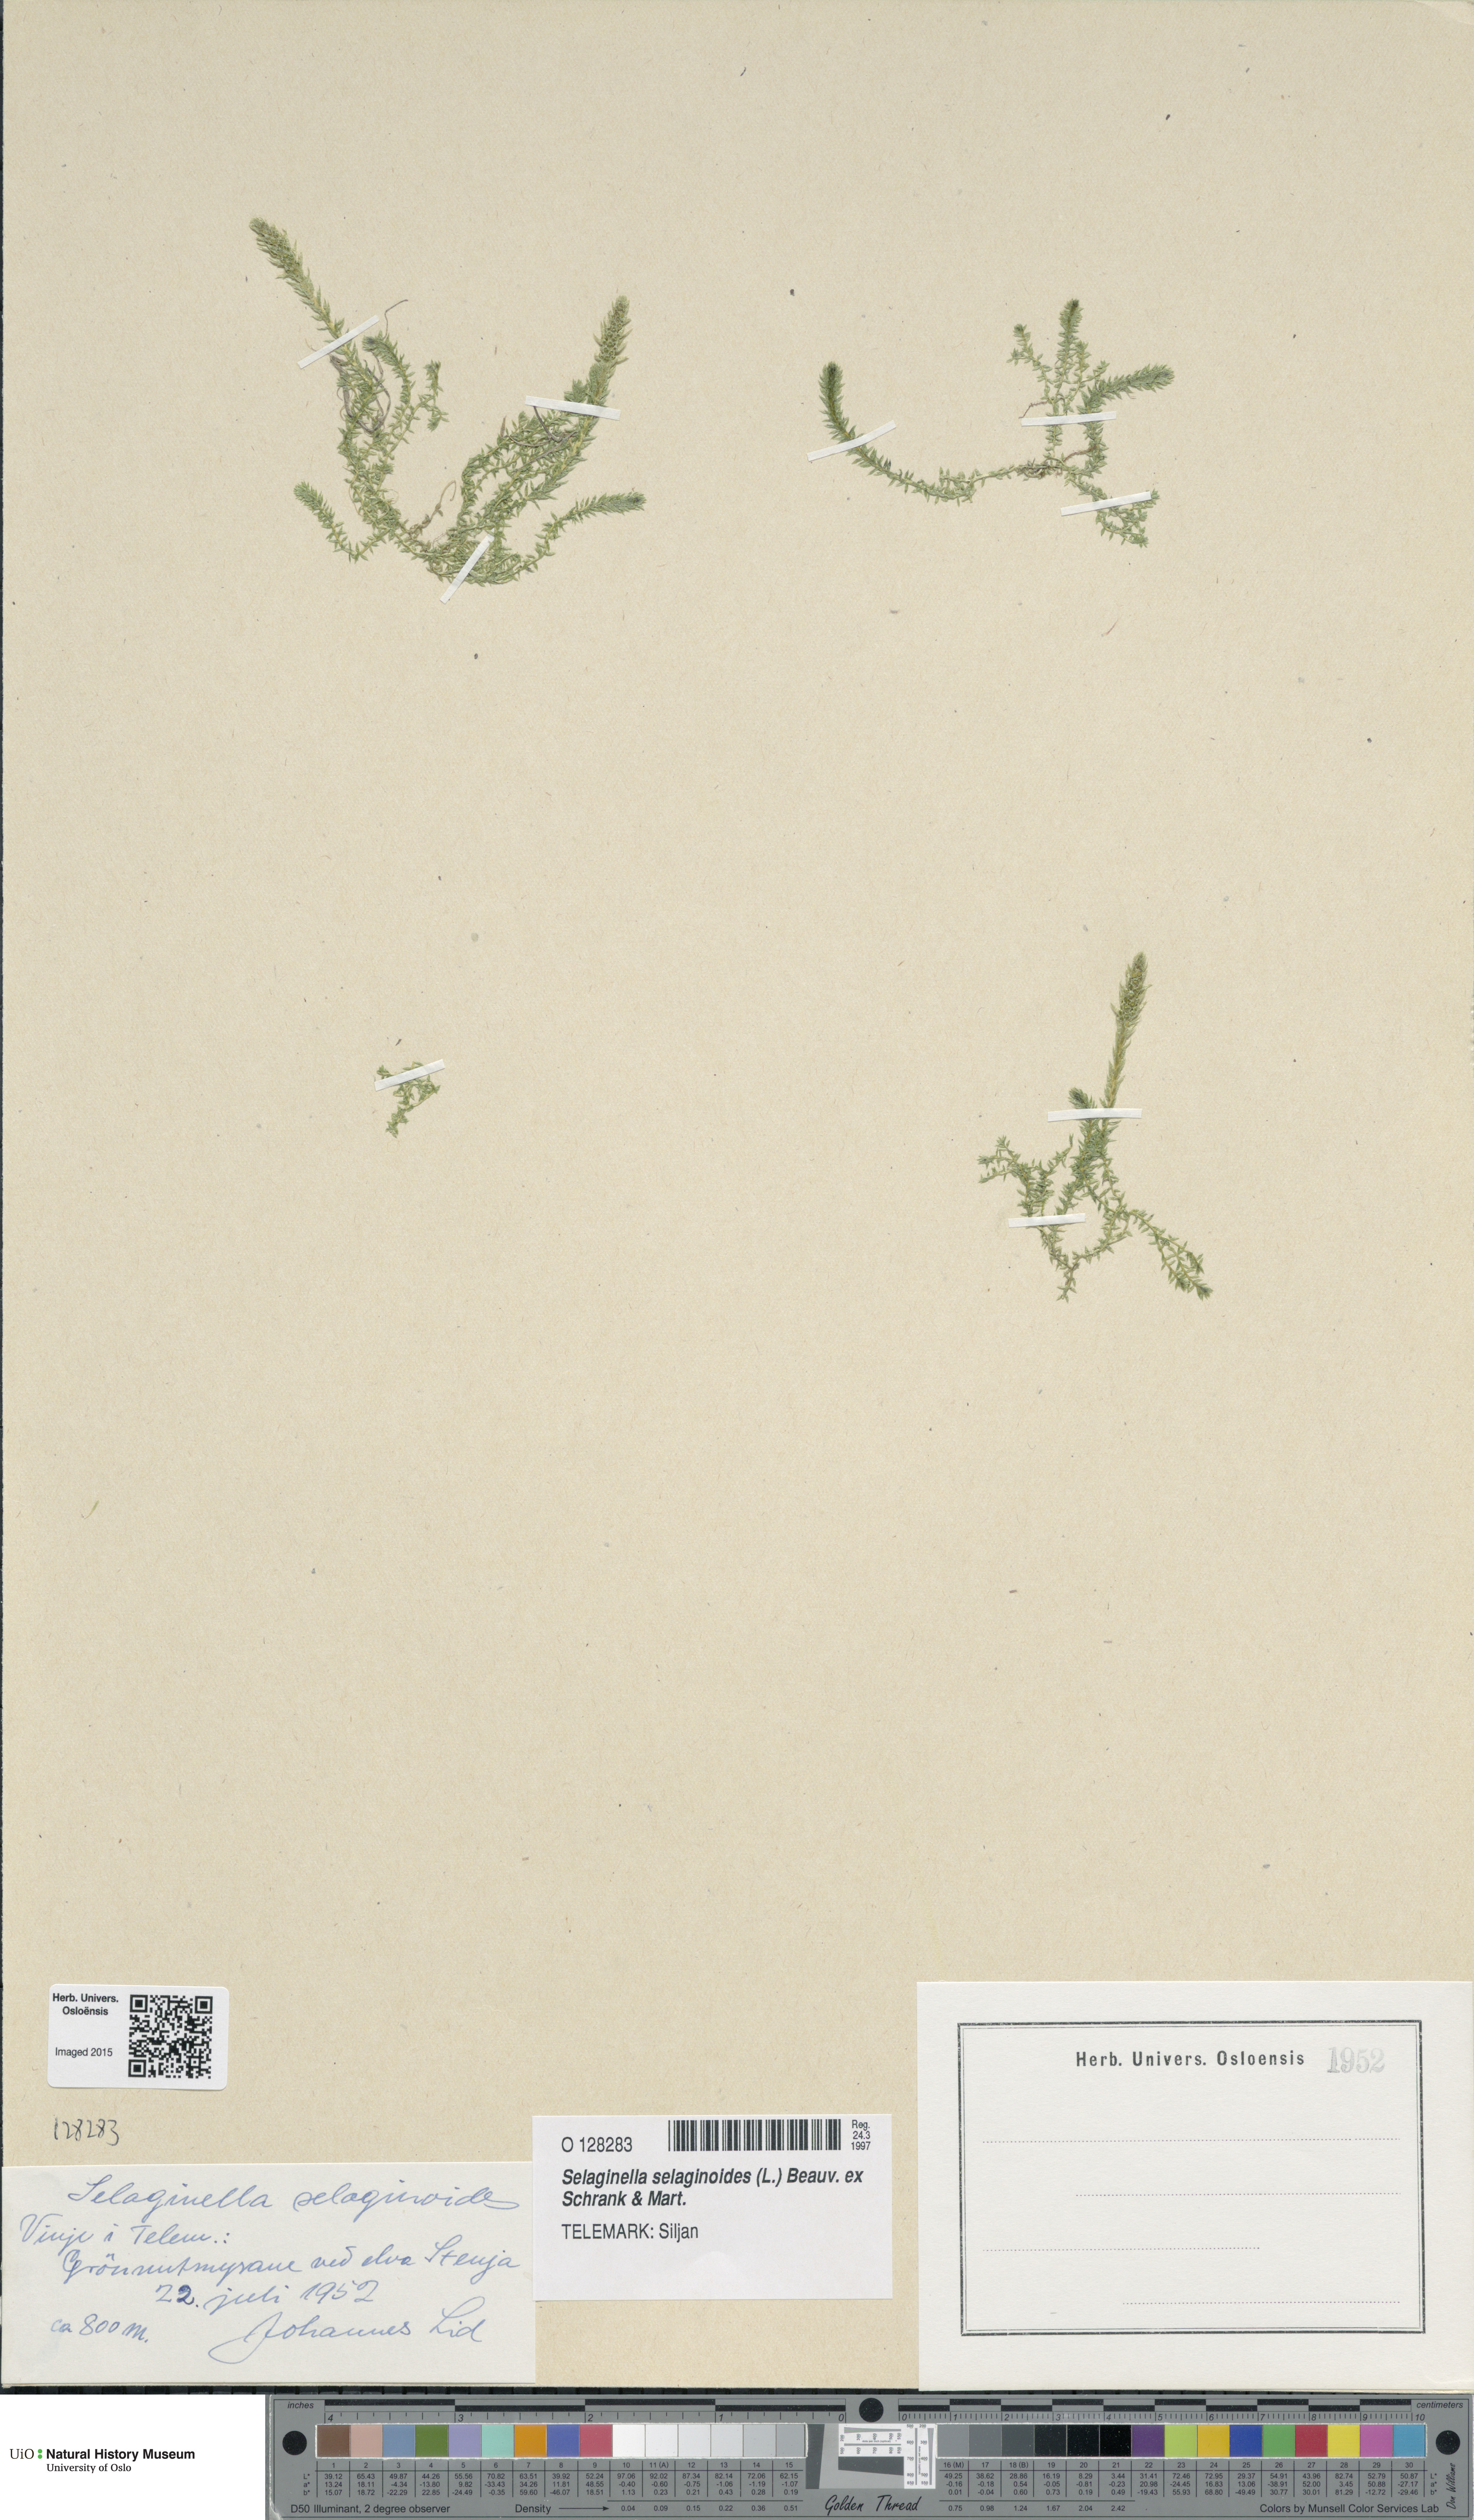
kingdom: Plantae
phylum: Tracheophyta
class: Lycopodiopsida
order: Selaginellales
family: Selaginellaceae
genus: Selaginella
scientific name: Selaginella selaginoides
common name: Prickly mountain-moss
